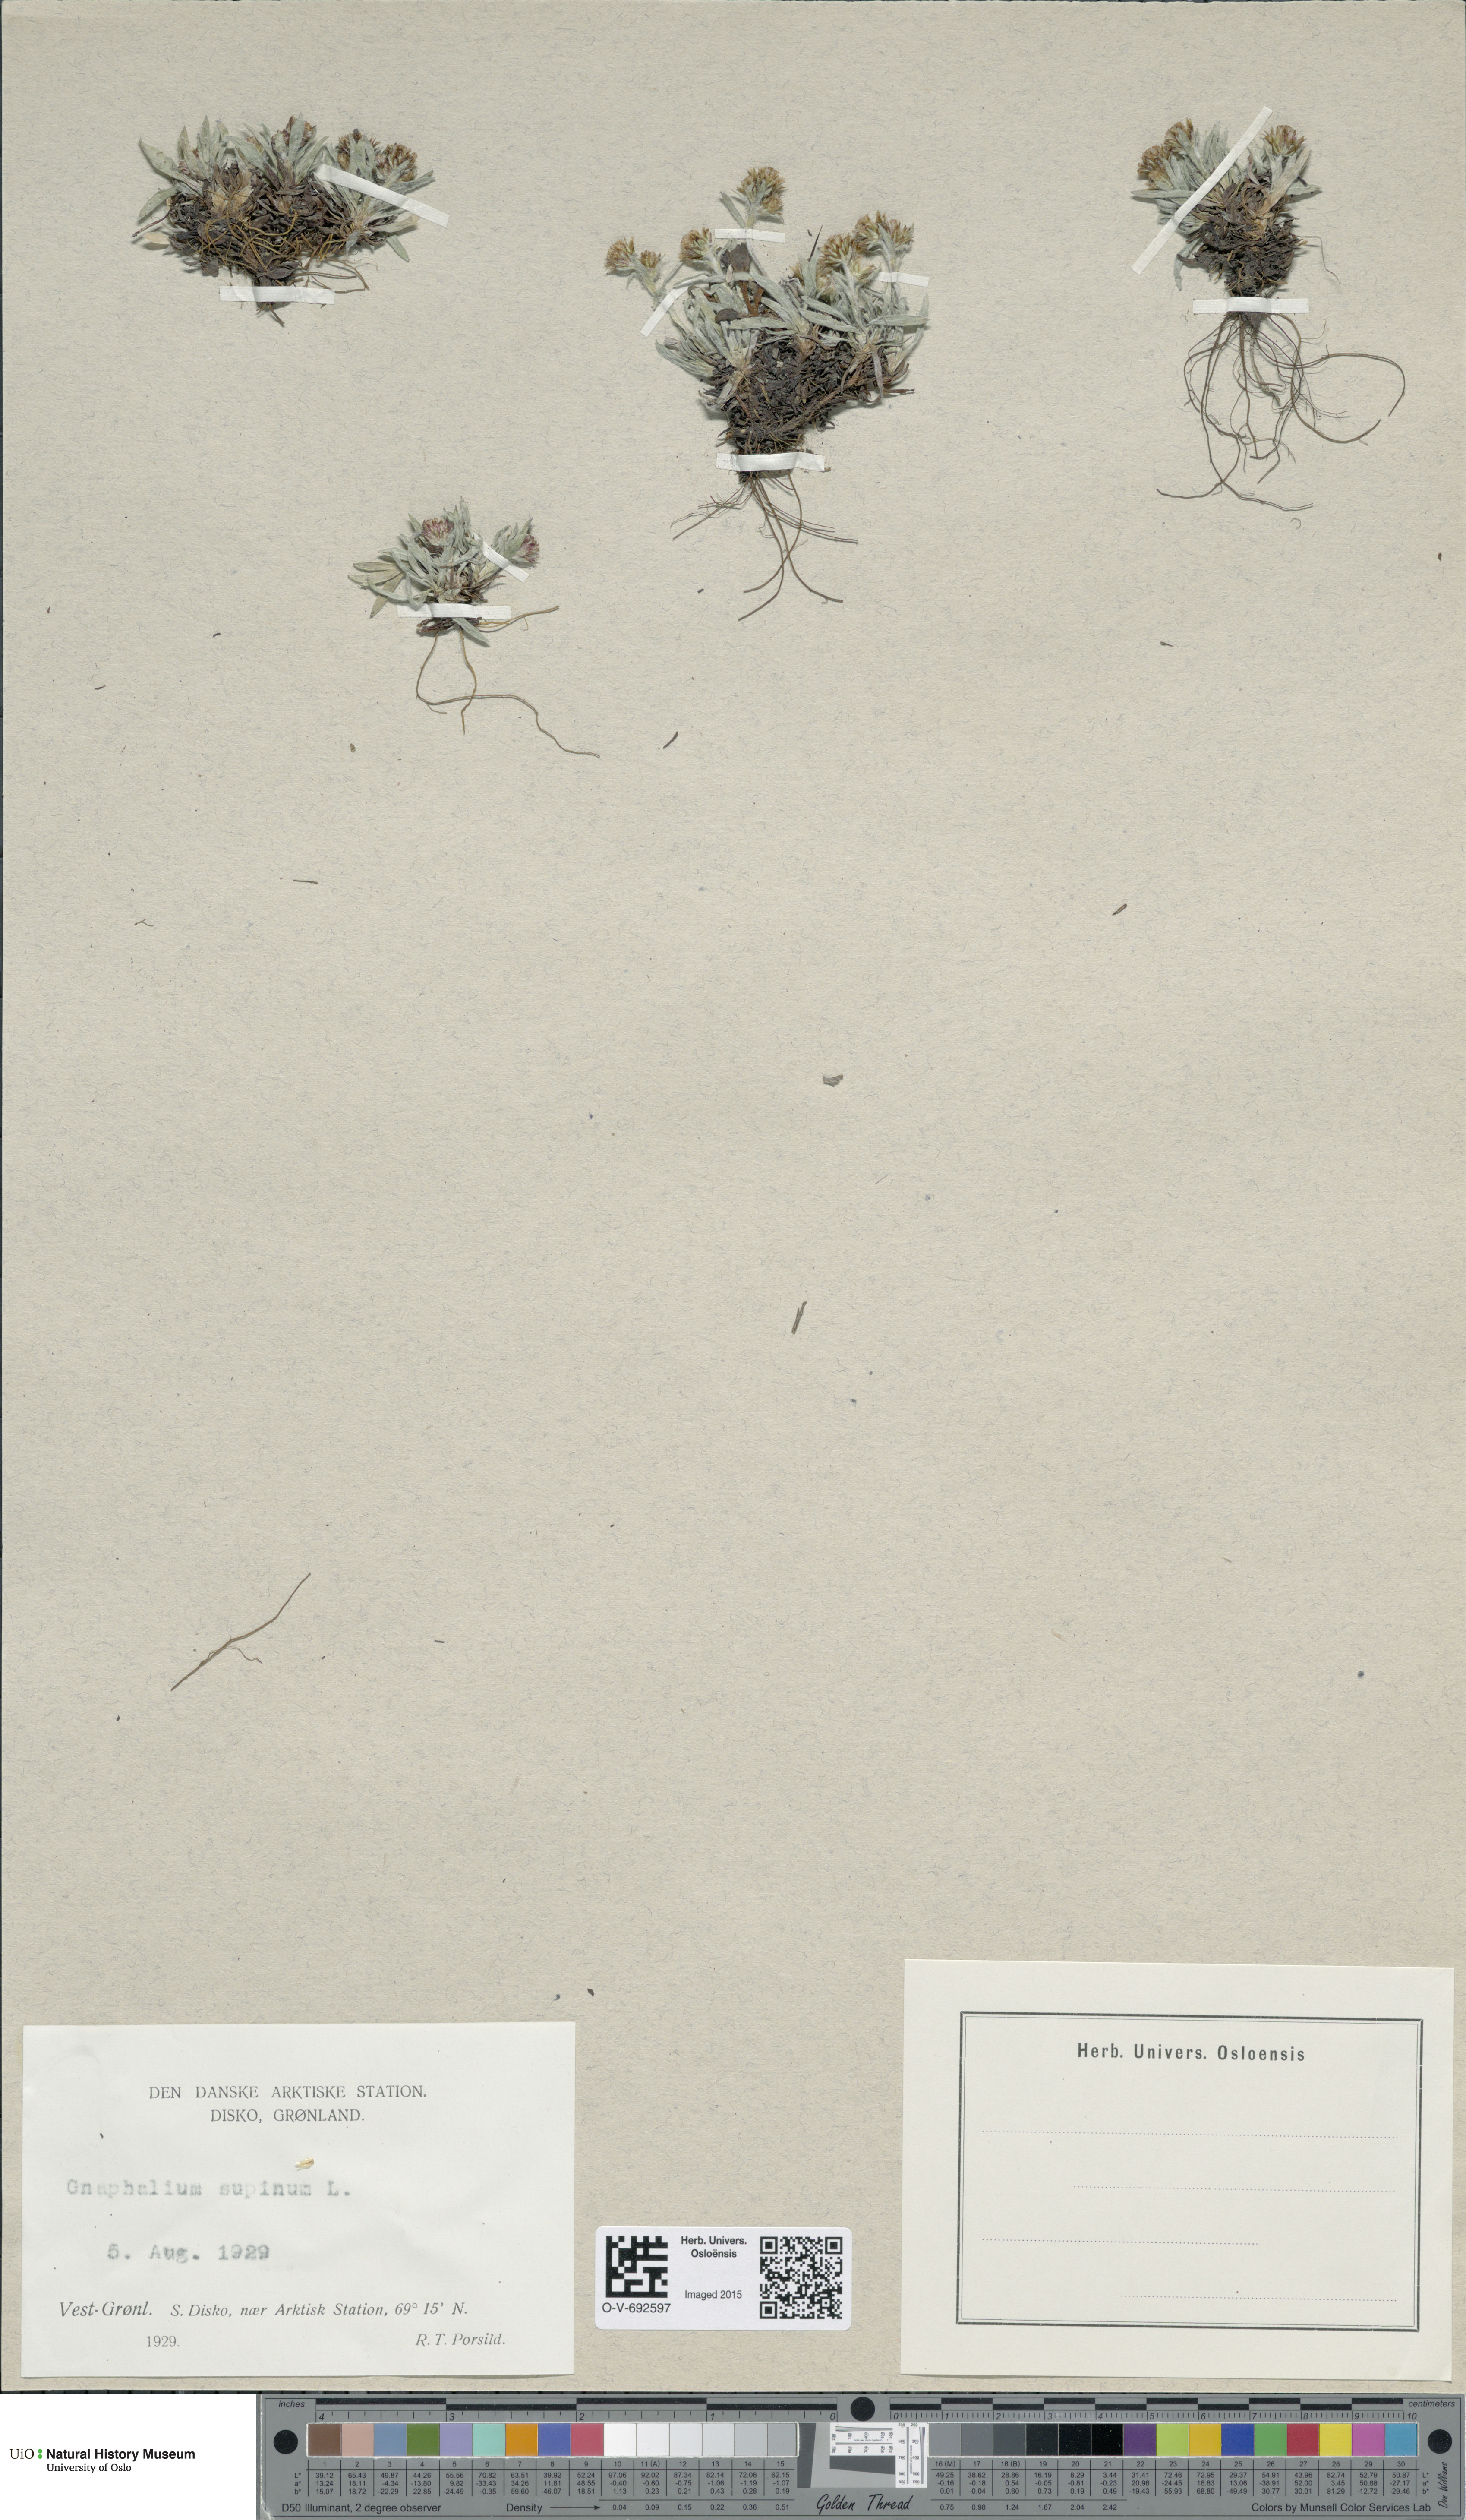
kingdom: Plantae
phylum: Tracheophyta
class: Magnoliopsida
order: Asterales
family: Asteraceae
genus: Omalotheca
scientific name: Omalotheca supina
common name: Alpine arctic-cudweed
